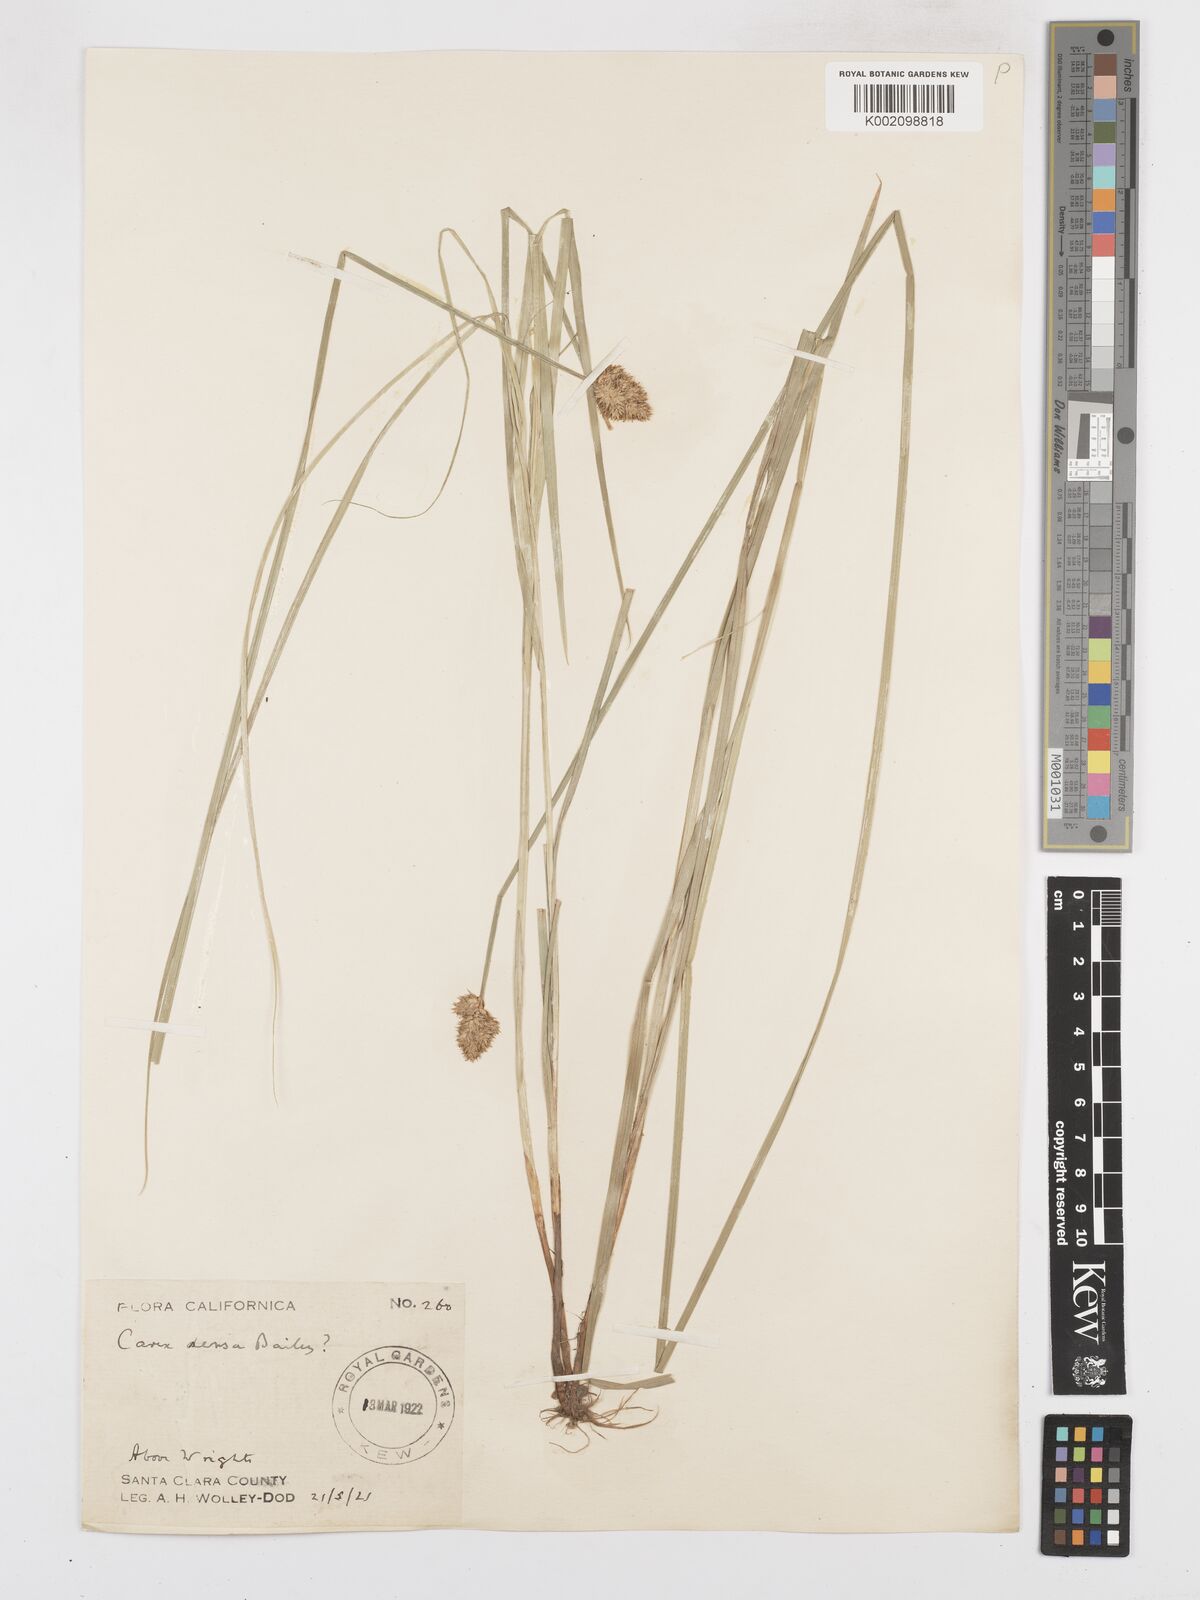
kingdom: Plantae
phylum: Tracheophyta
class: Liliopsida
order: Poales
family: Cyperaceae
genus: Carex
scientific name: Carex densa
